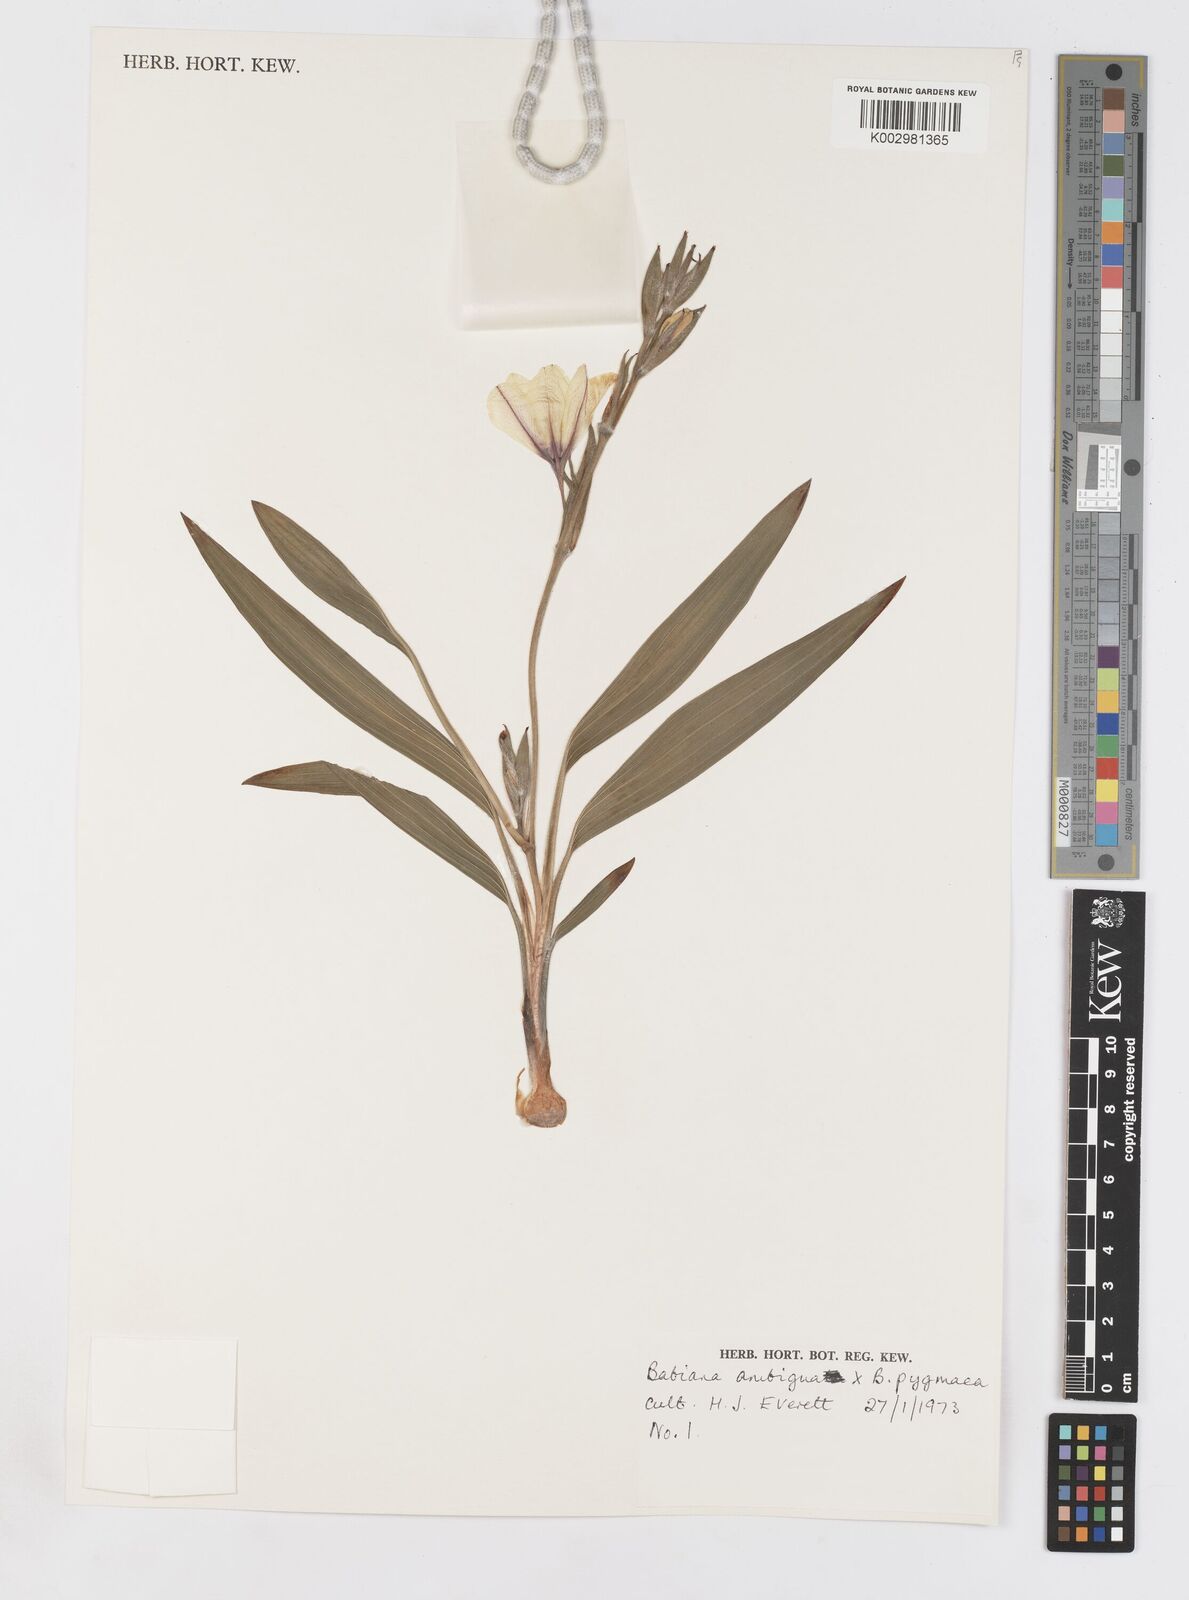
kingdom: Plantae
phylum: Tracheophyta
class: Liliopsida
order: Asparagales
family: Iridaceae
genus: Babiana
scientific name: Babiana ambigua
